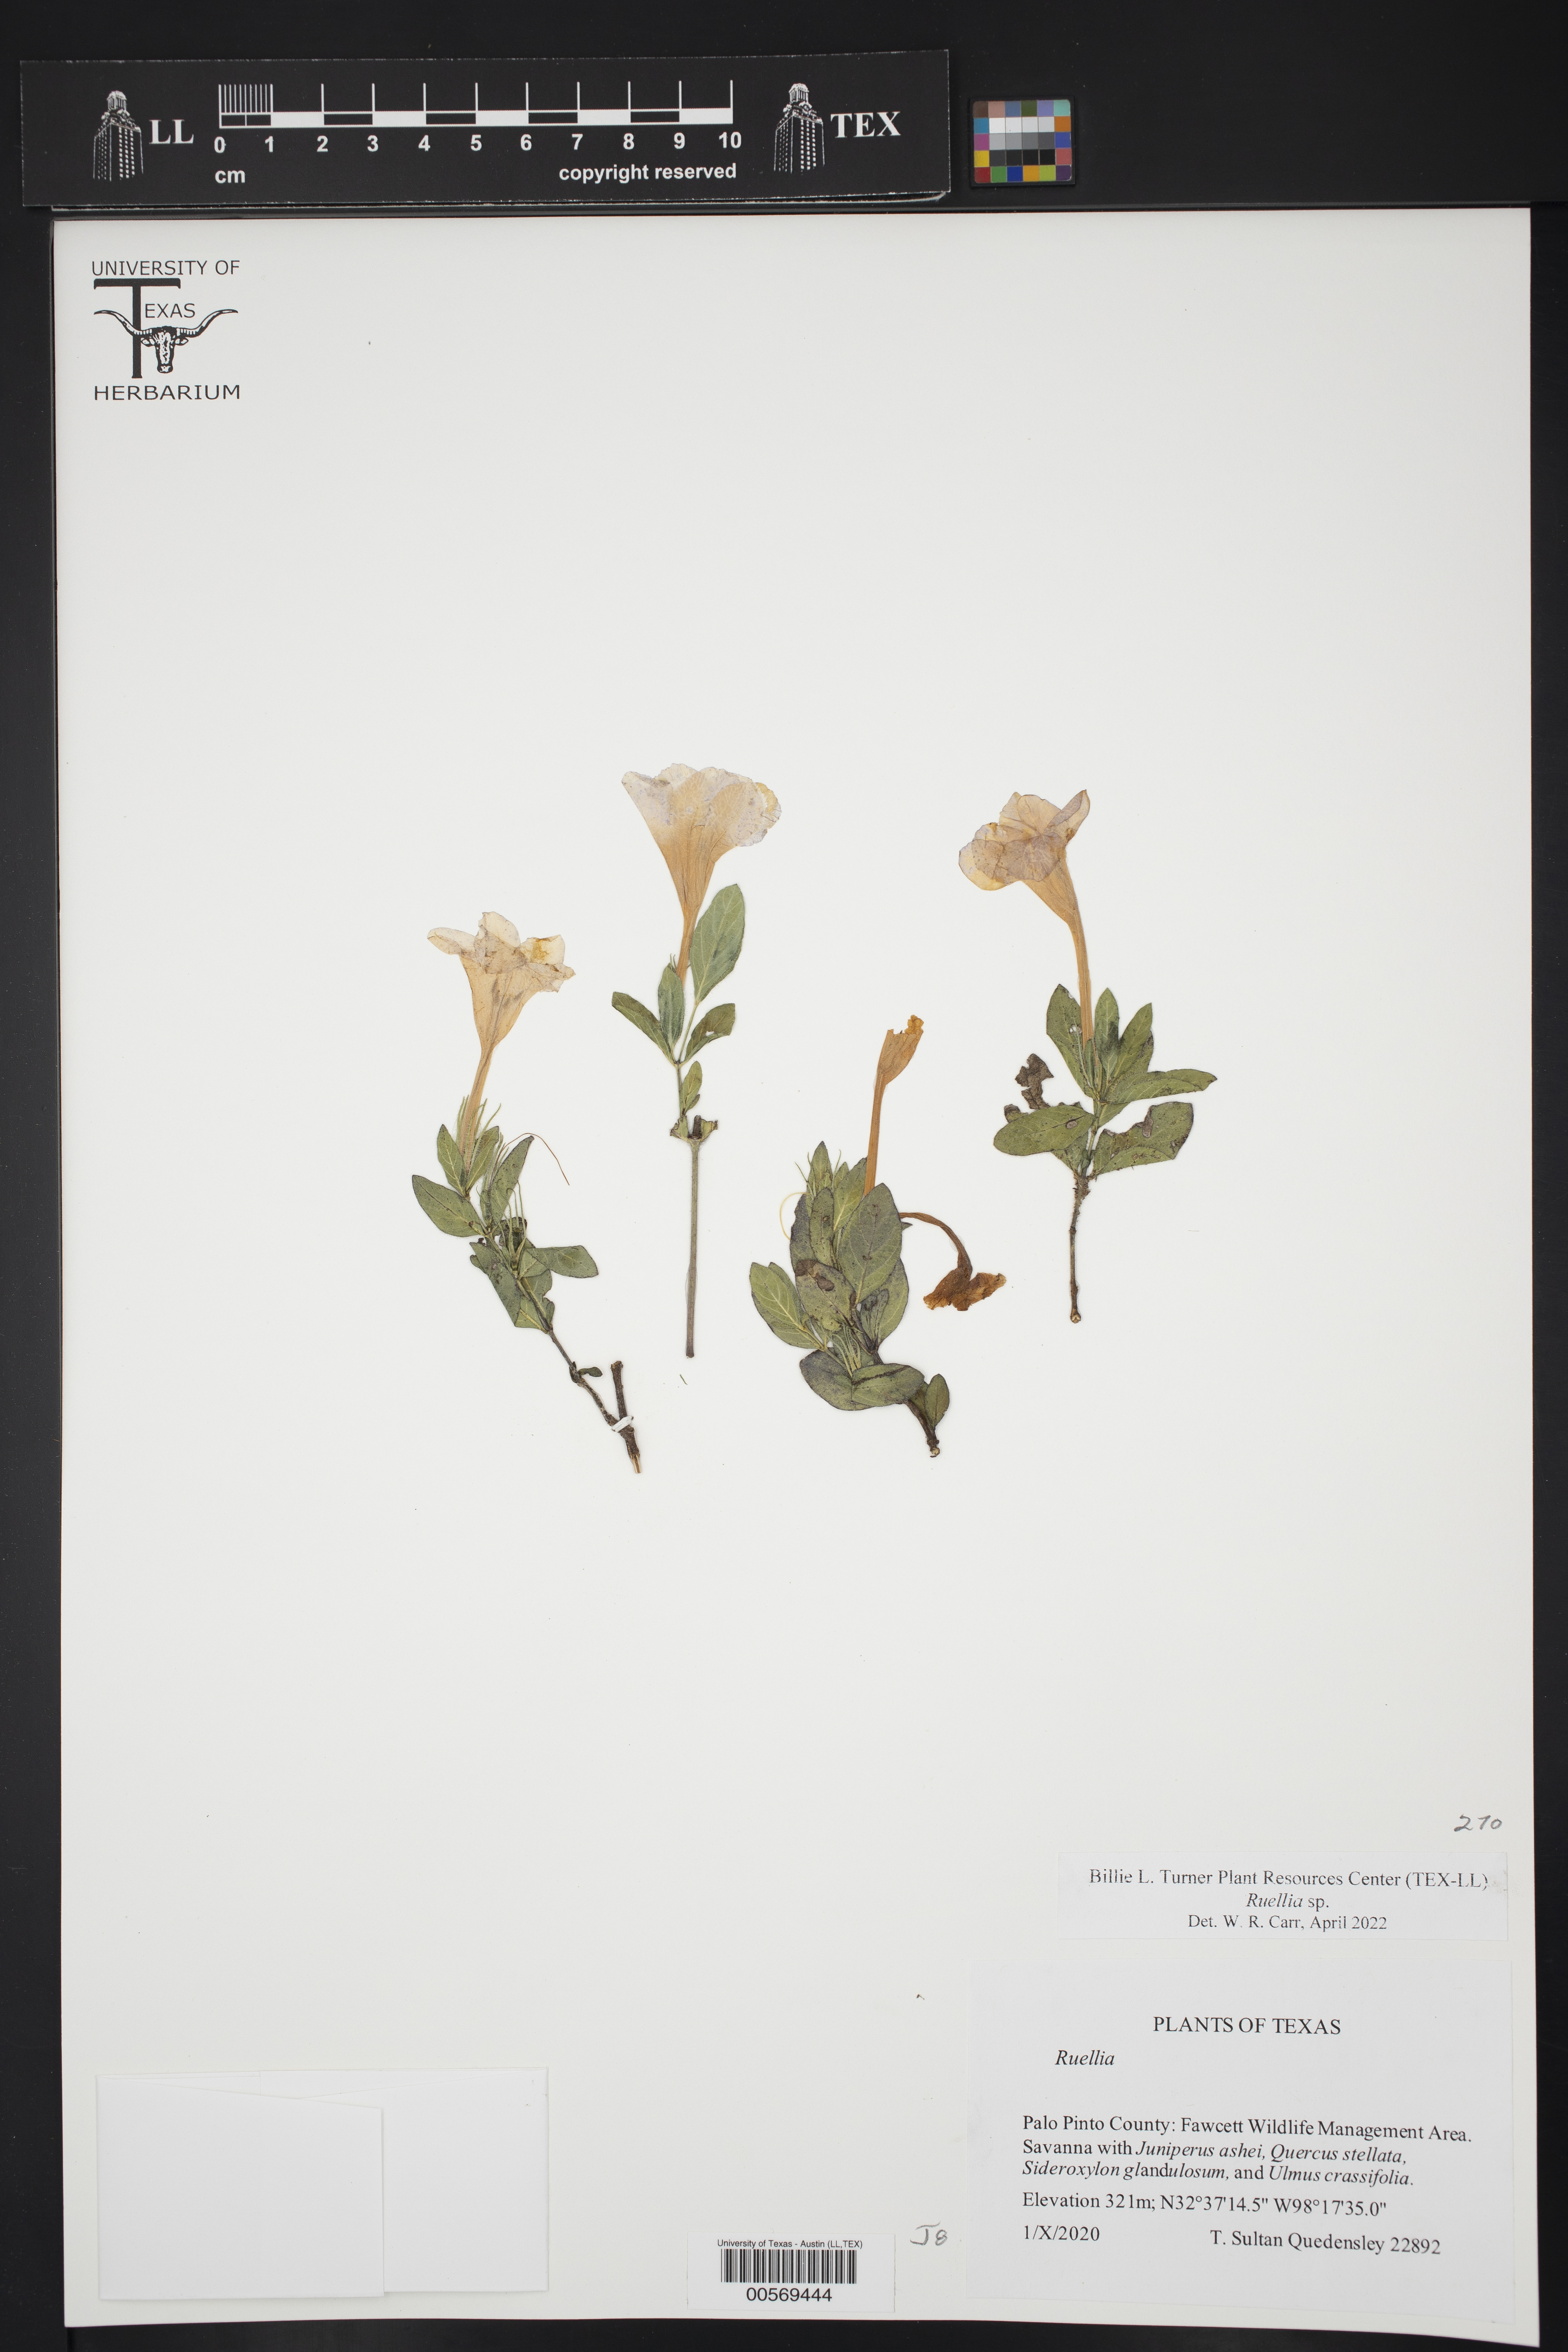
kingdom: Plantae
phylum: Tracheophyta
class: Magnoliopsida
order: Lamiales
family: Acanthaceae
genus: Ruellia
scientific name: Ruellia
